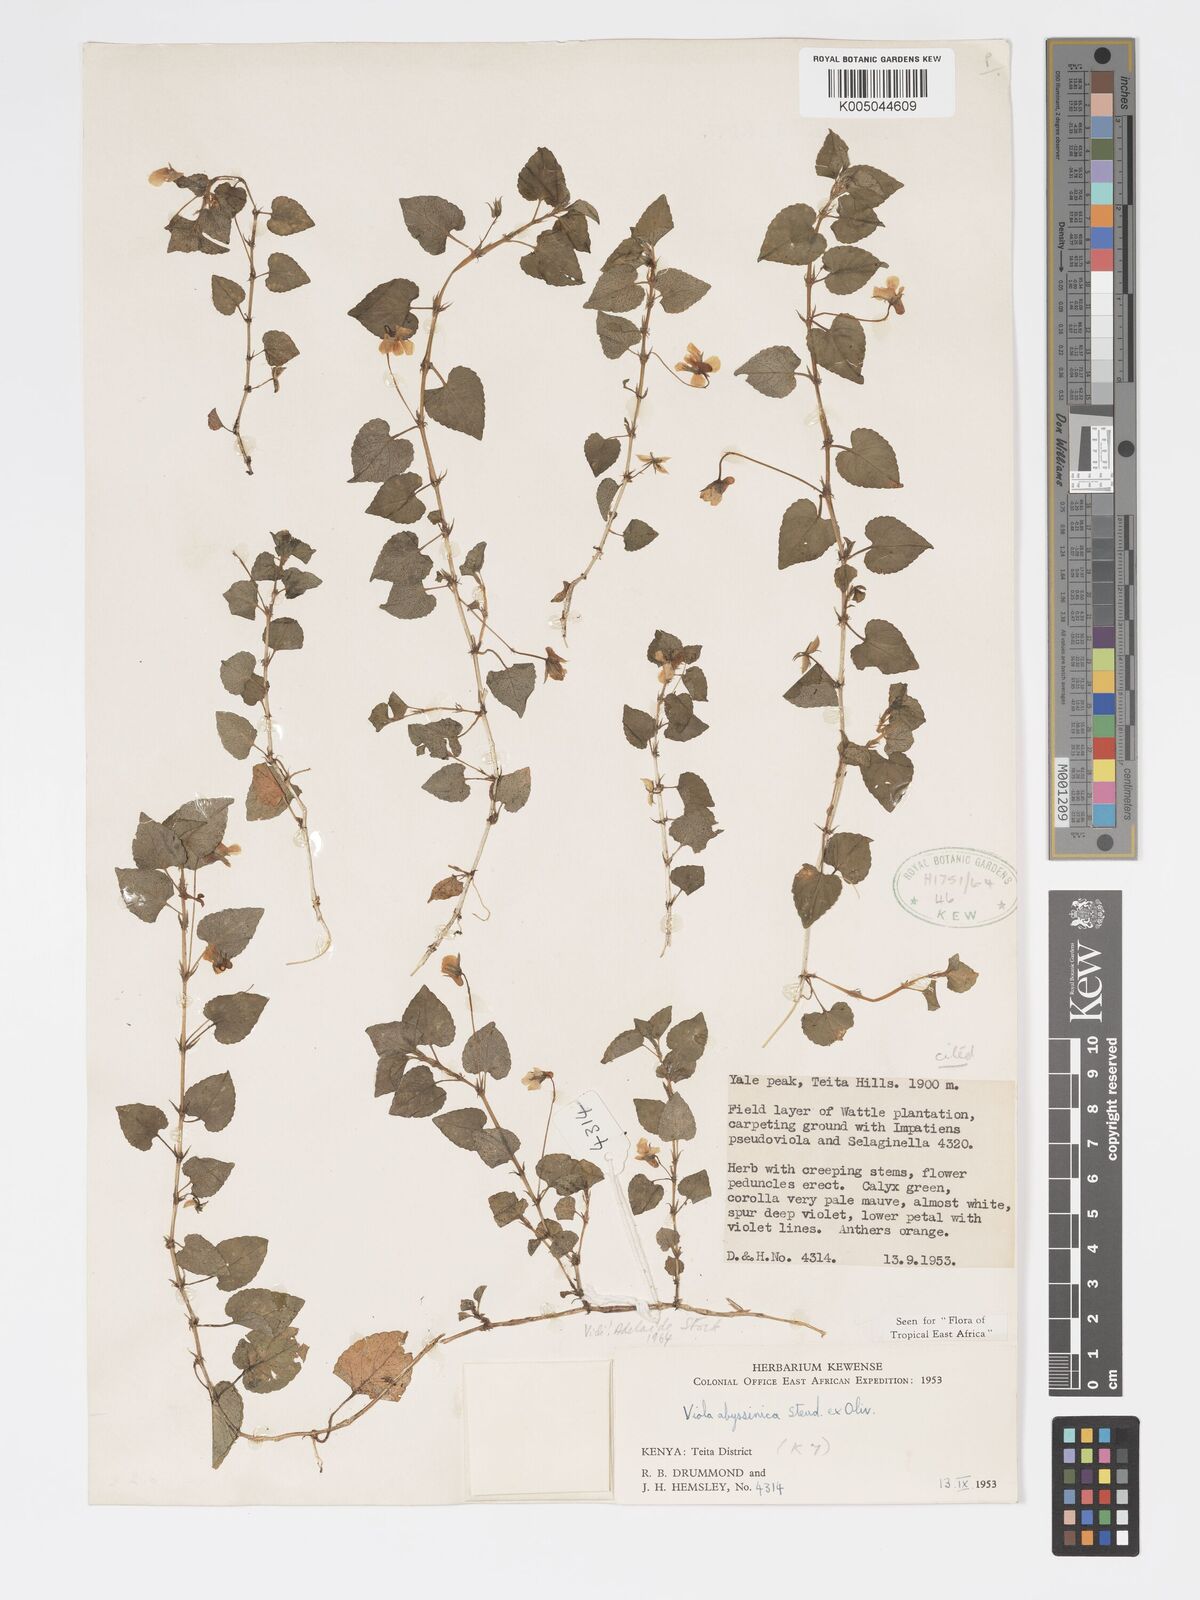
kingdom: Plantae
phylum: Tracheophyta
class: Magnoliopsida
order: Malpighiales
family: Violaceae
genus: Viola
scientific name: Viola abyssinica
